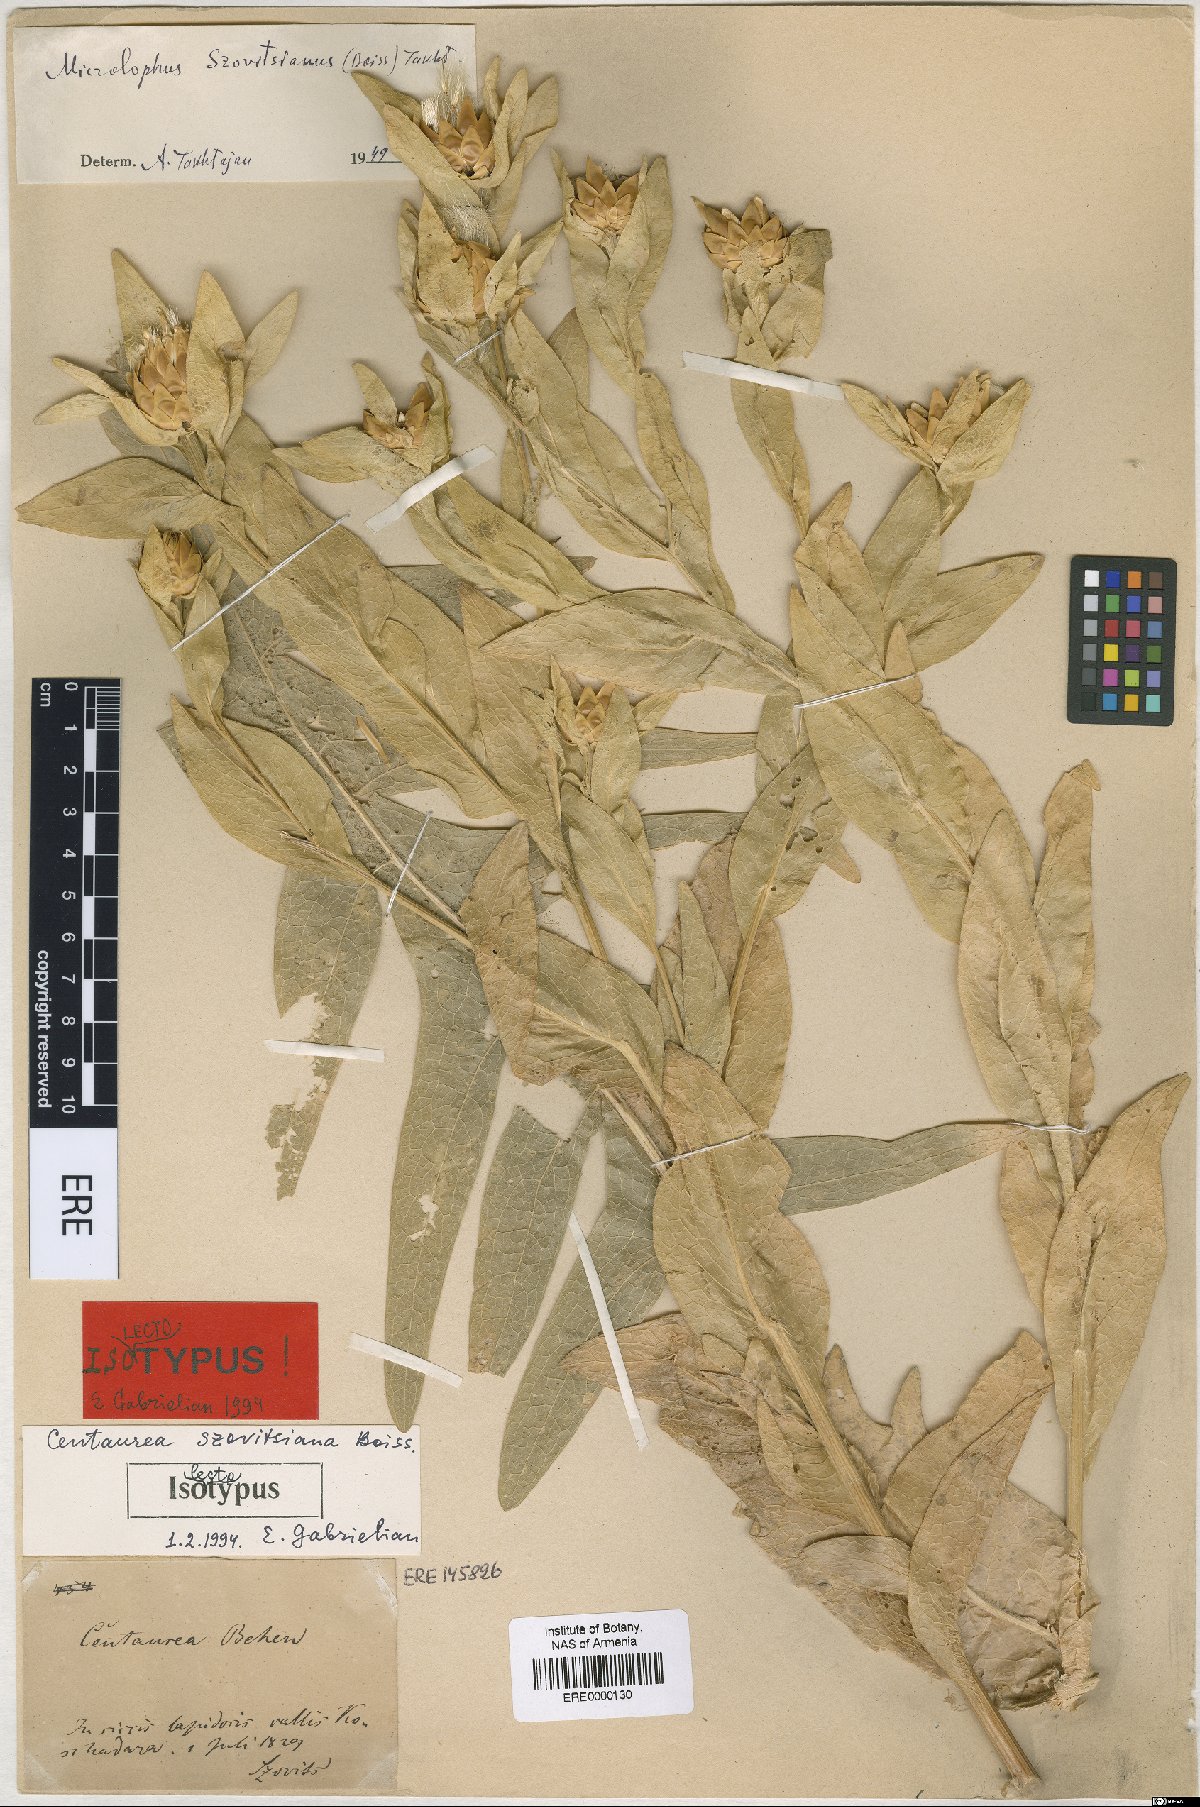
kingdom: Plantae
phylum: Tracheophyta
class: Magnoliopsida
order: Asterales
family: Asteraceae
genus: Centaurea
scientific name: Centaurea szovitsiana
